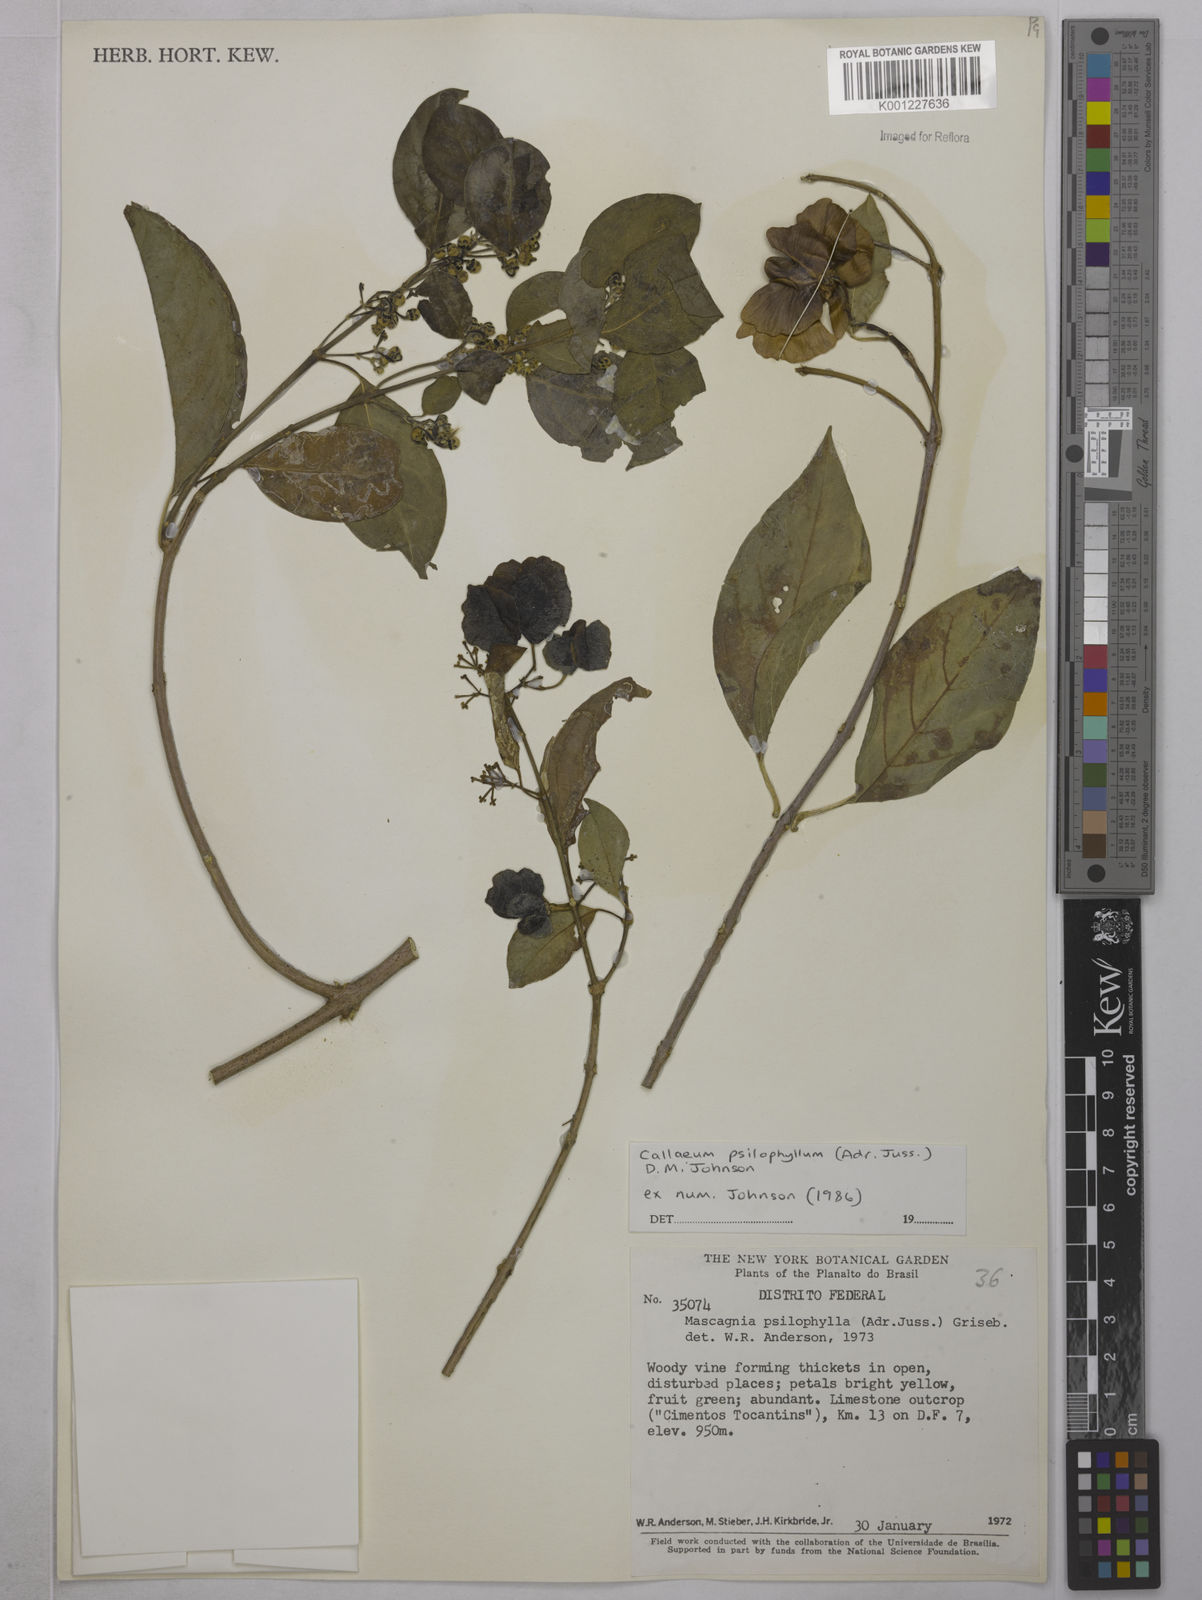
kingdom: Plantae
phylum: Tracheophyta
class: Magnoliopsida
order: Malpighiales
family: Malpighiaceae
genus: Callaeum
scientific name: Callaeum psilophyllum
